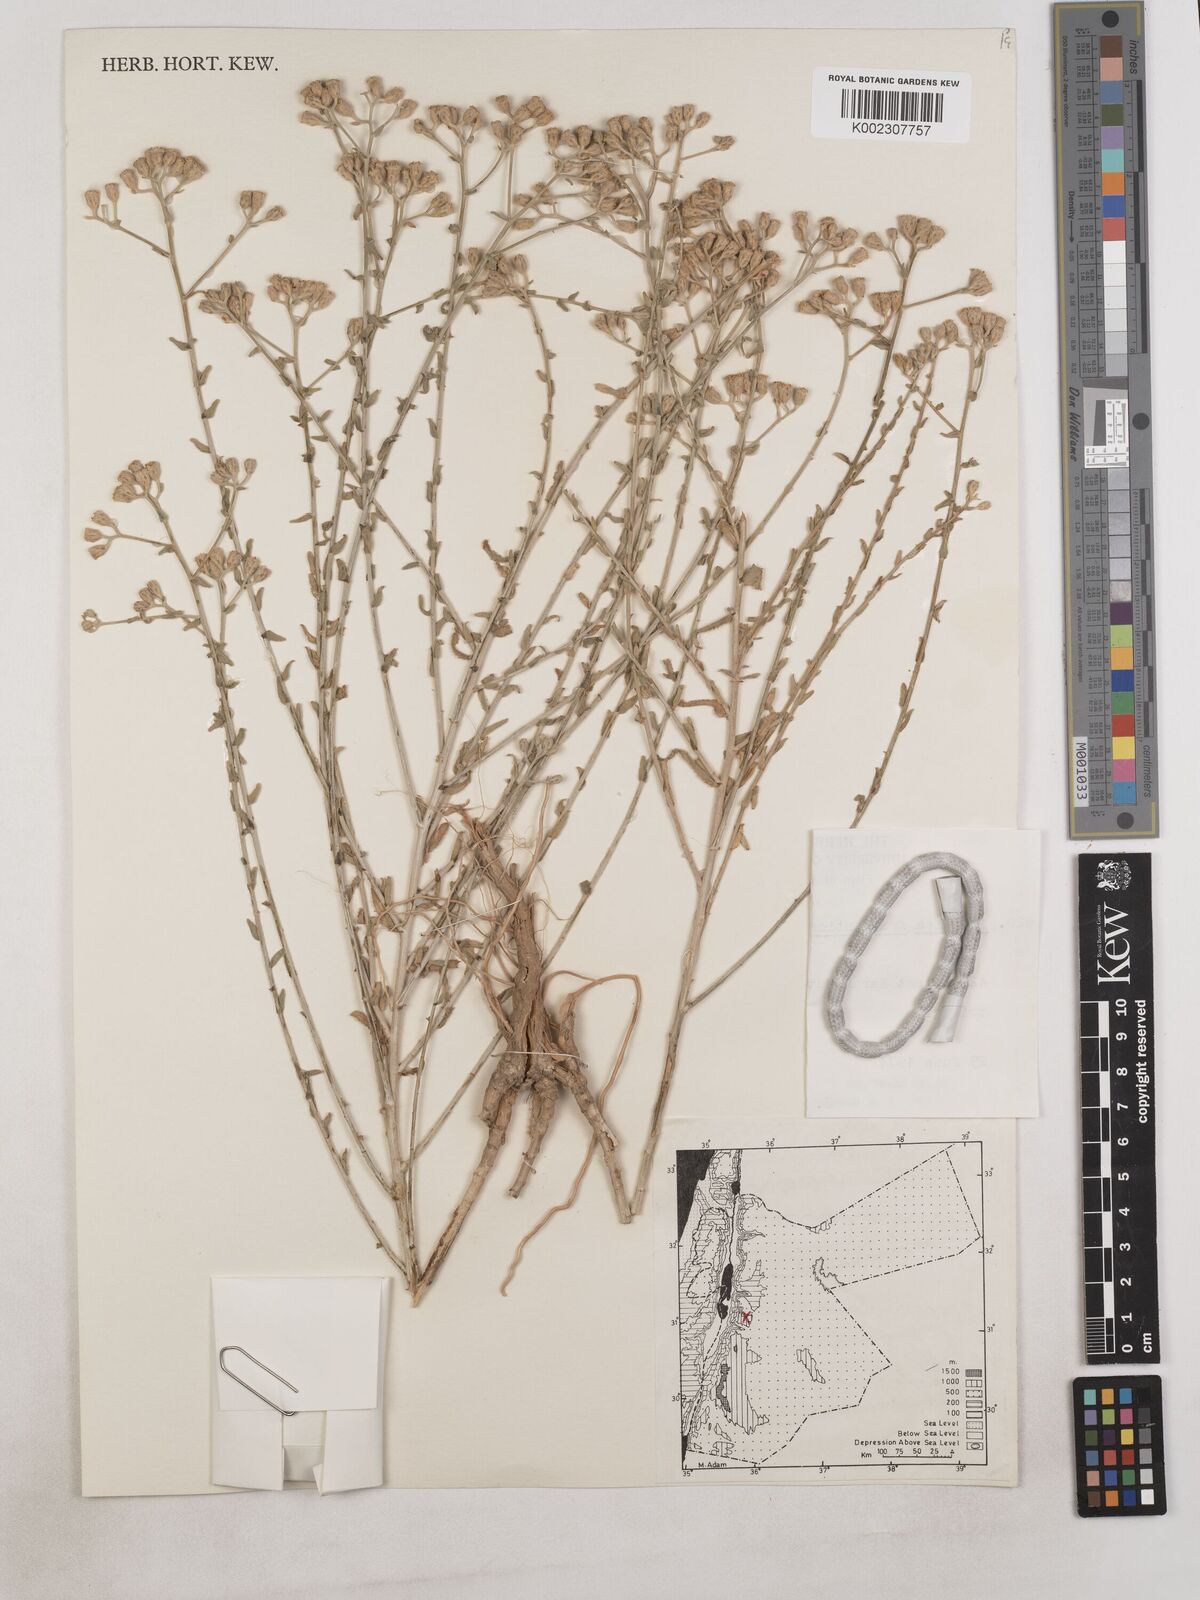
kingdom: Plantae
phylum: Tracheophyta
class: Magnoliopsida
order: Asterales
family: Asteraceae
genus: Achillea
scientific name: Achillea fragrantissima
